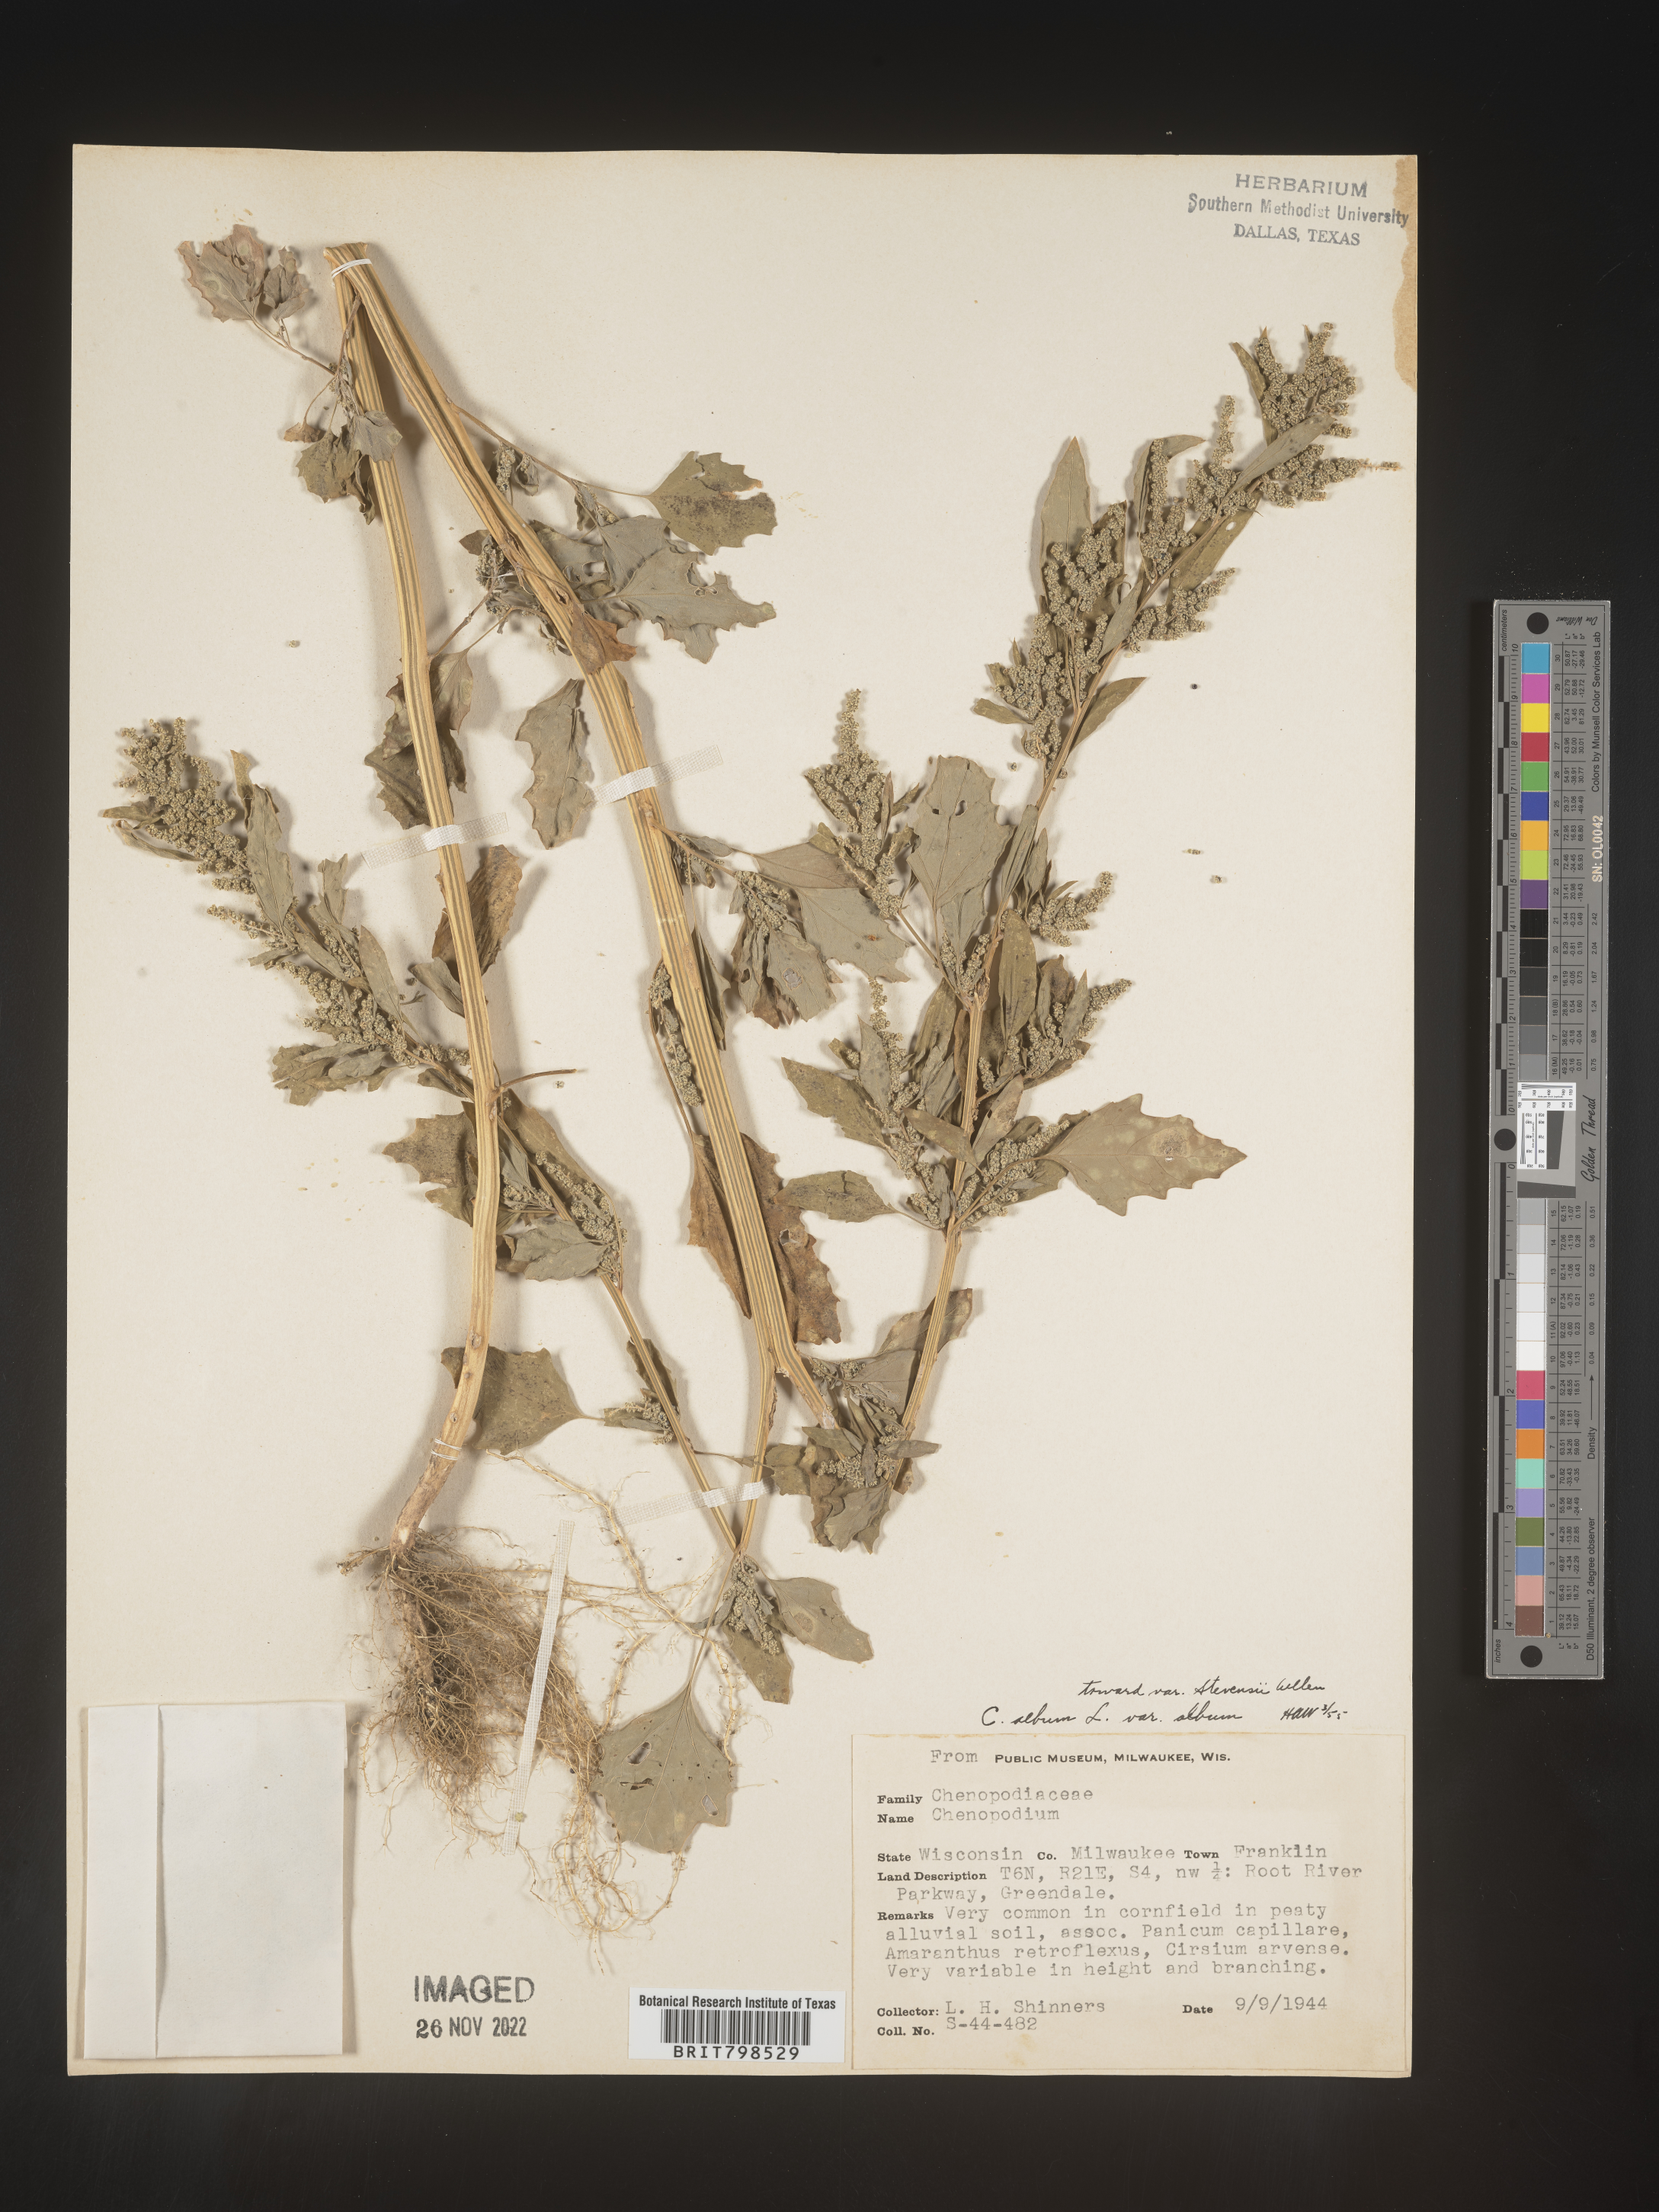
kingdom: Plantae
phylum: Tracheophyta
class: Magnoliopsida
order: Caryophyllales
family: Amaranthaceae
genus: Chenopodium
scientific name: Chenopodium album
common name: Fat-hen
